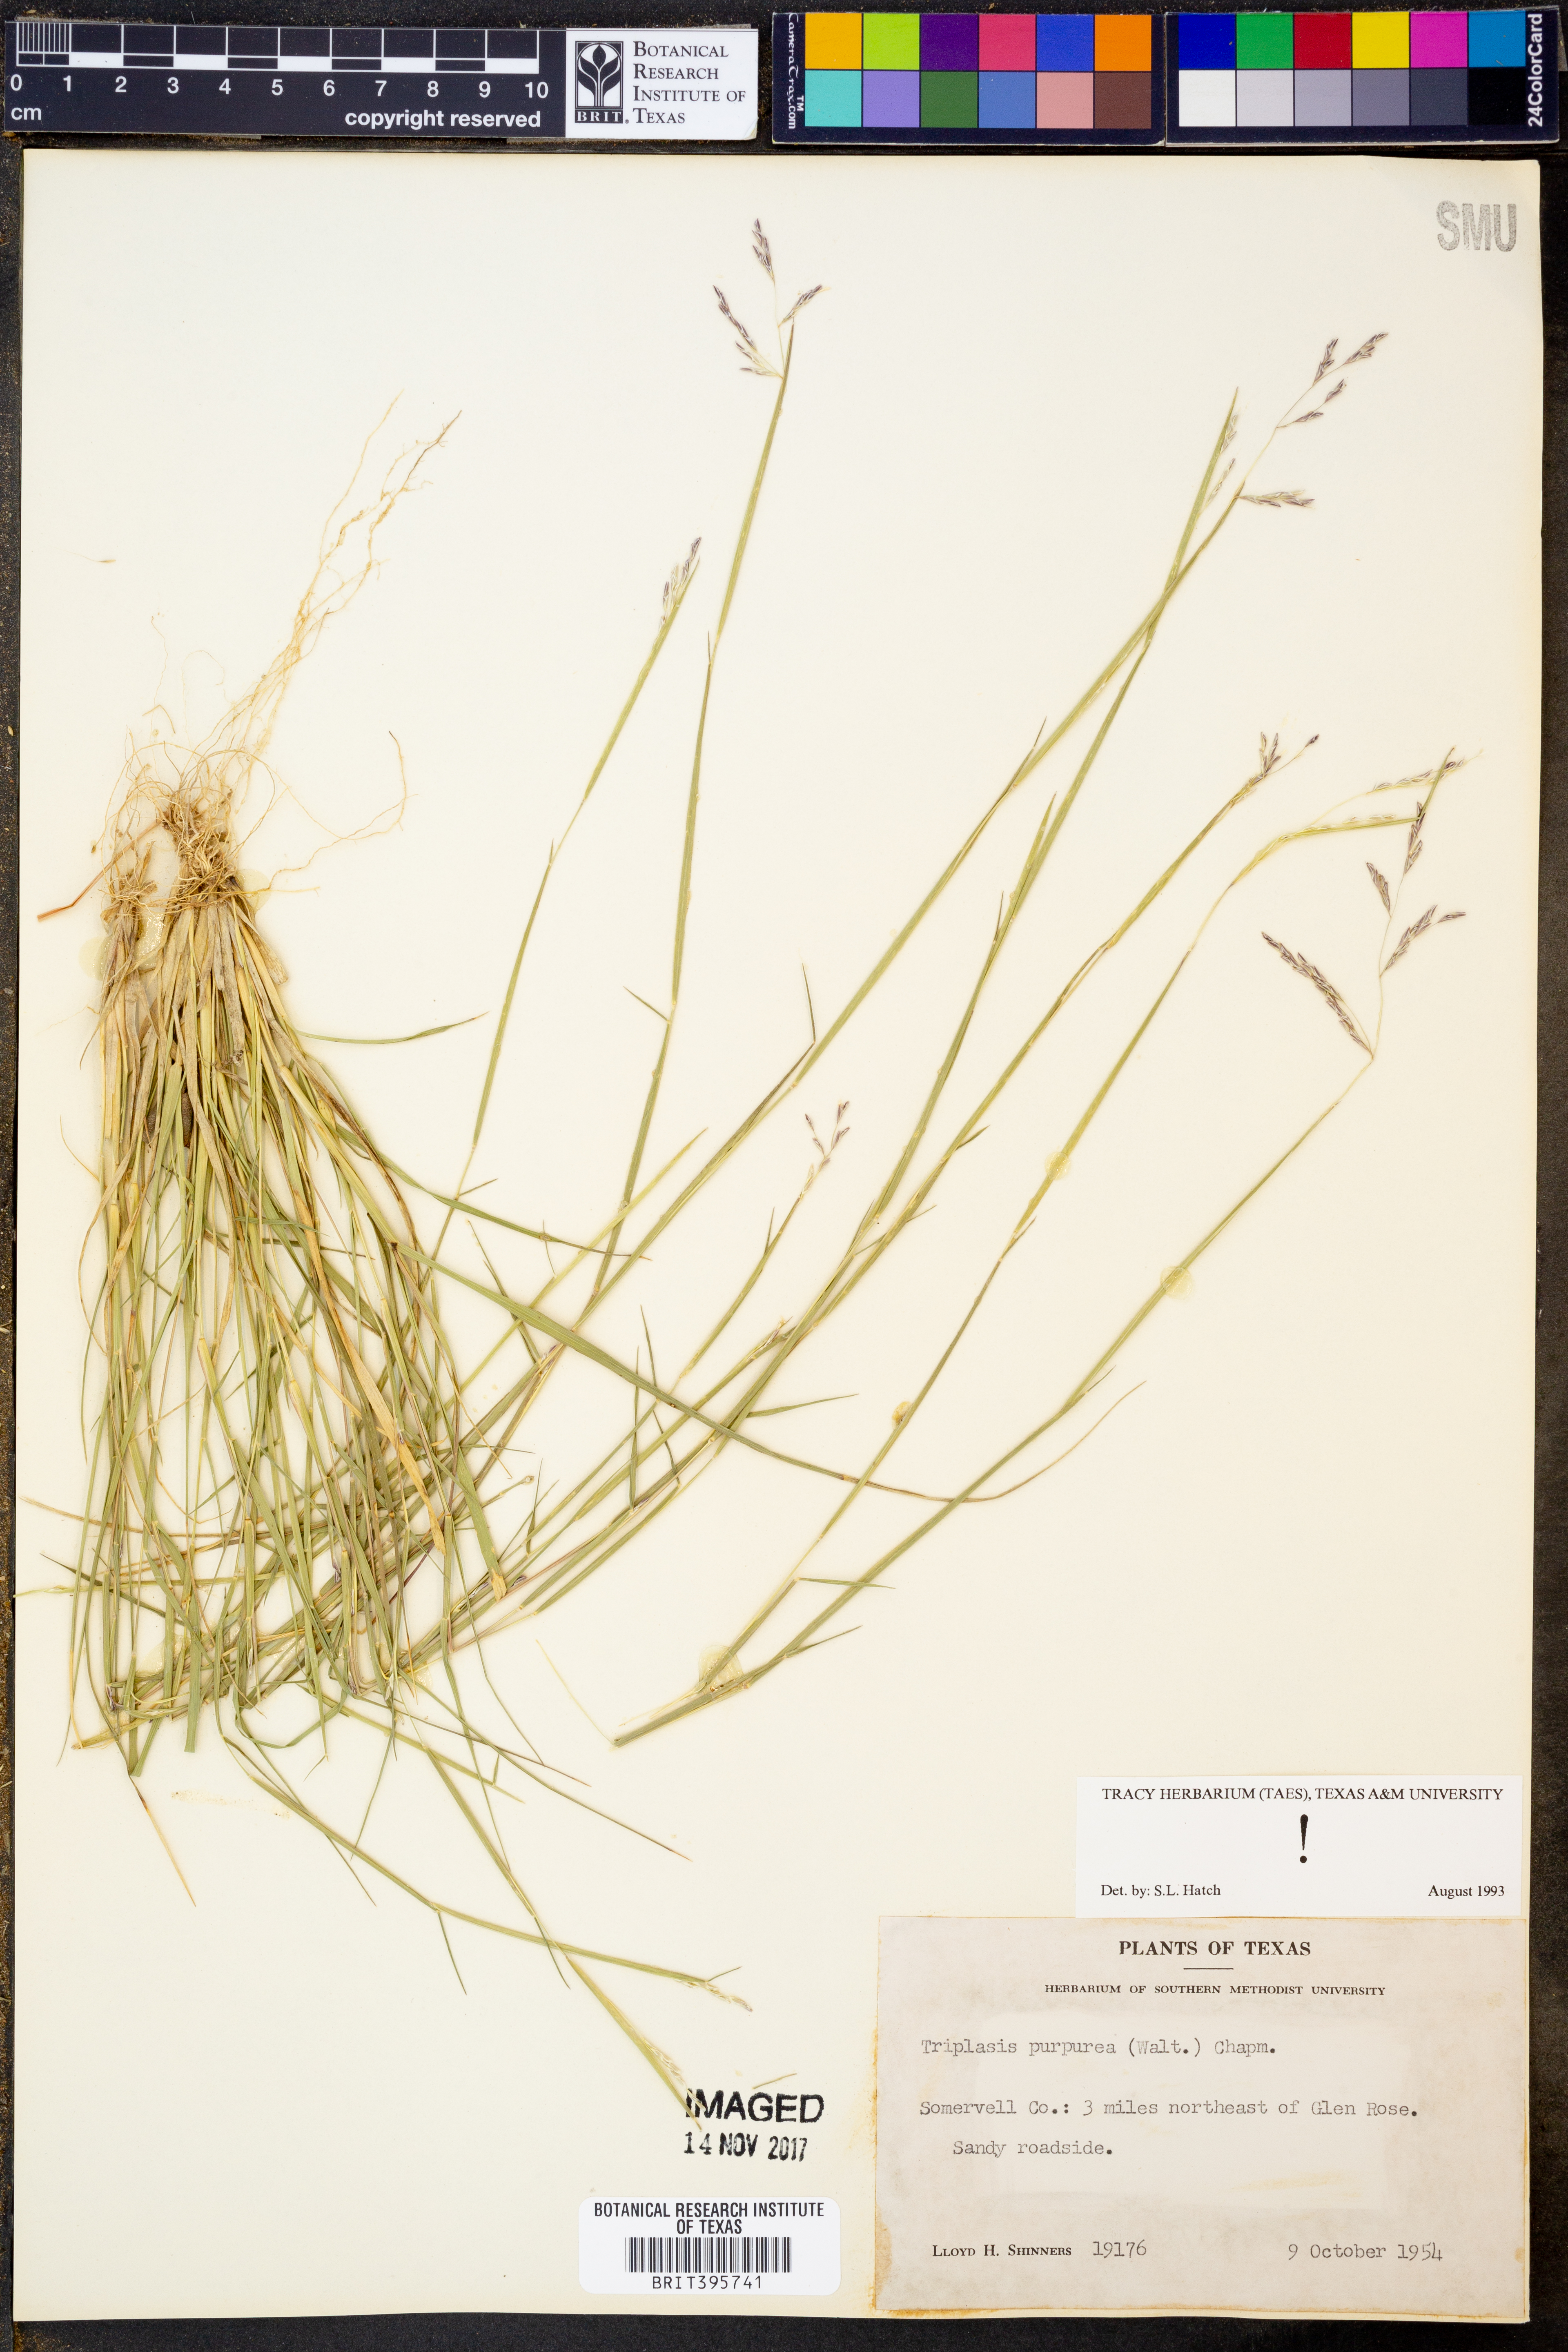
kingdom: Plantae
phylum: Tracheophyta
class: Liliopsida
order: Poales
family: Poaceae
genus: Triplasis
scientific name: Triplasis purpurea
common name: Purple sand grass
